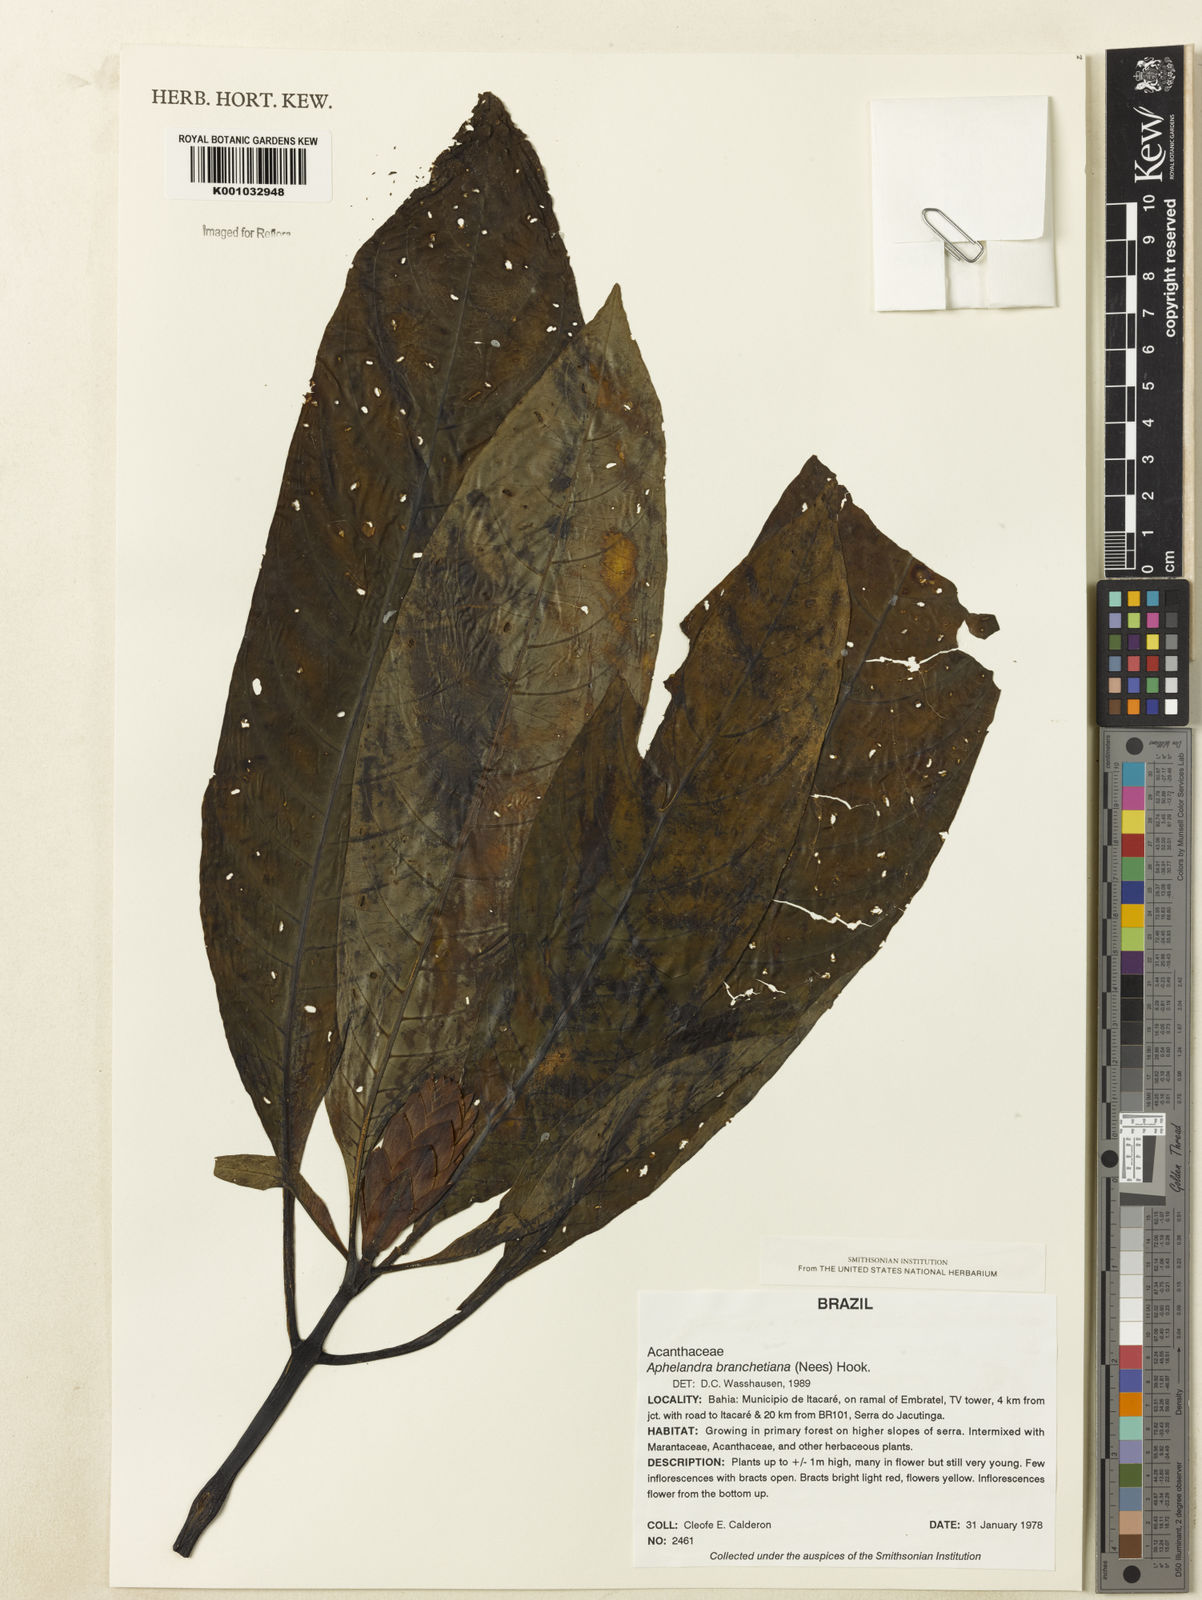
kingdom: Plantae
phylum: Tracheophyta
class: Magnoliopsida
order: Lamiales
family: Acanthaceae
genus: Aphelandra
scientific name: Aphelandra blanchetiana
